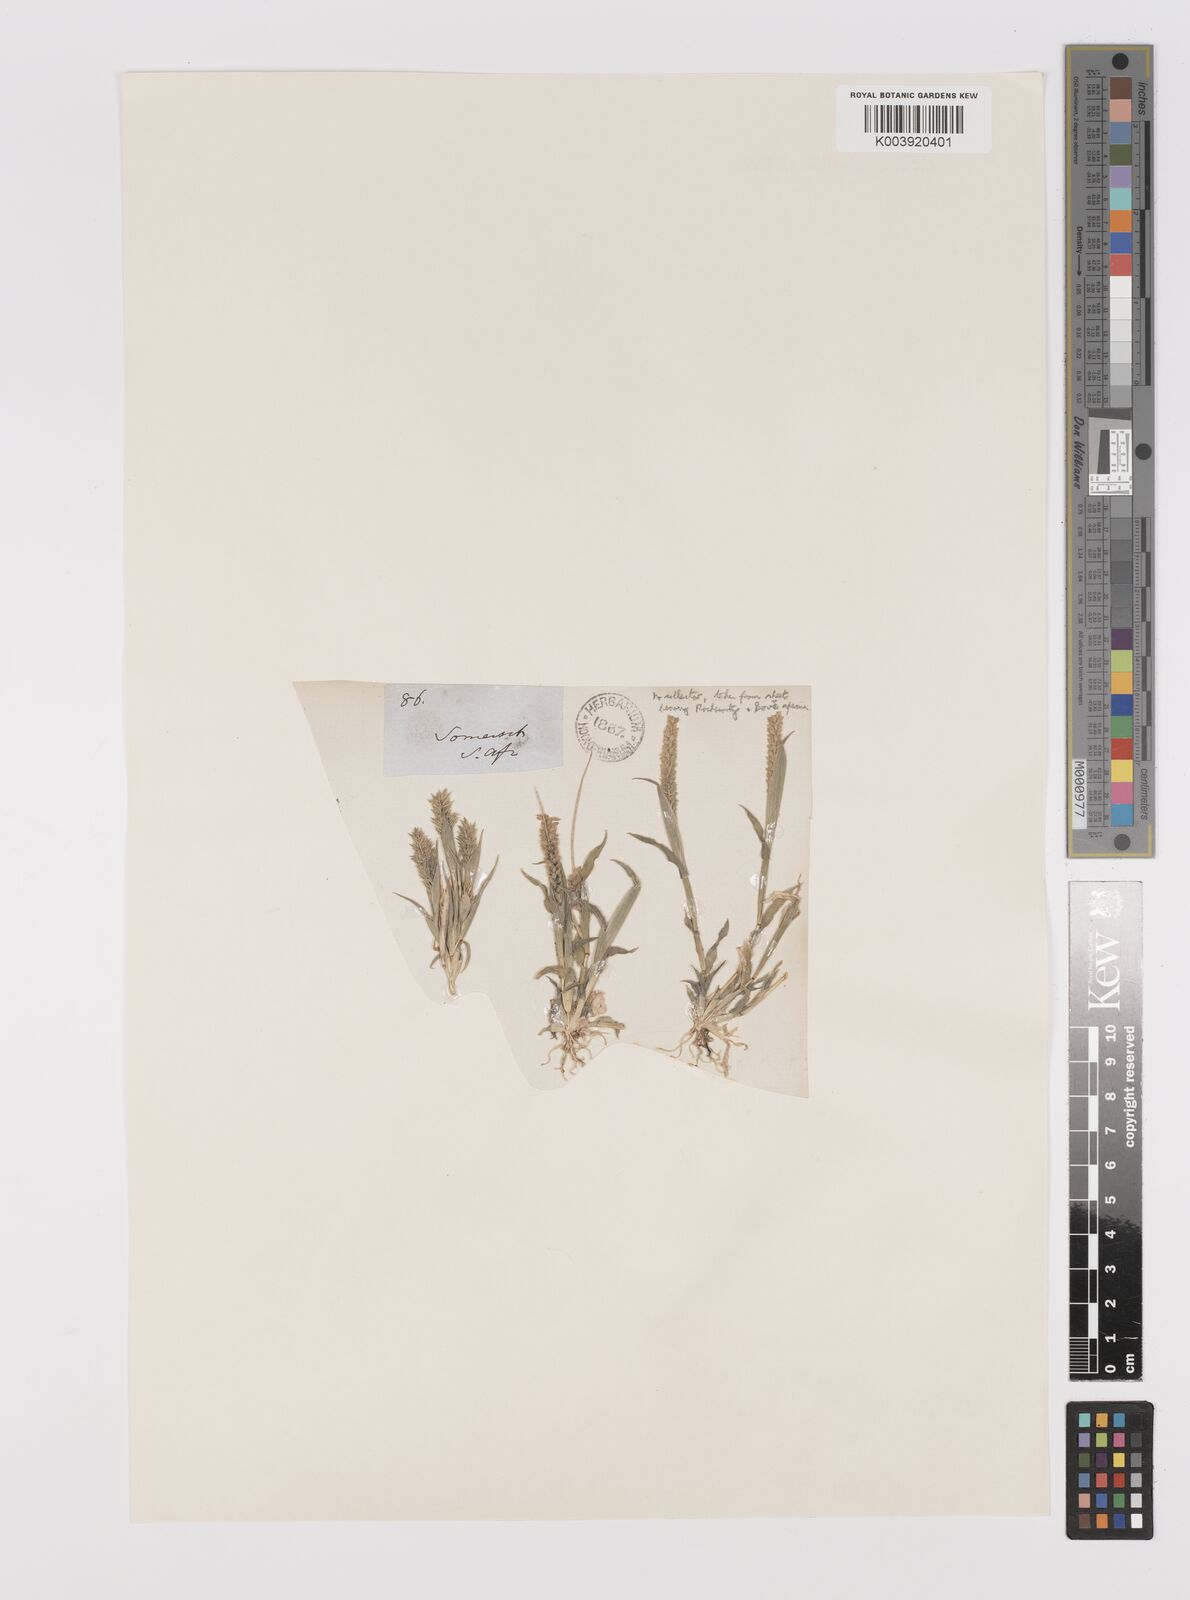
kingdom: Plantae
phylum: Tracheophyta
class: Liliopsida
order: Poales
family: Poaceae
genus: Tragus
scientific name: Tragus berteronianus
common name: African bur-grass
